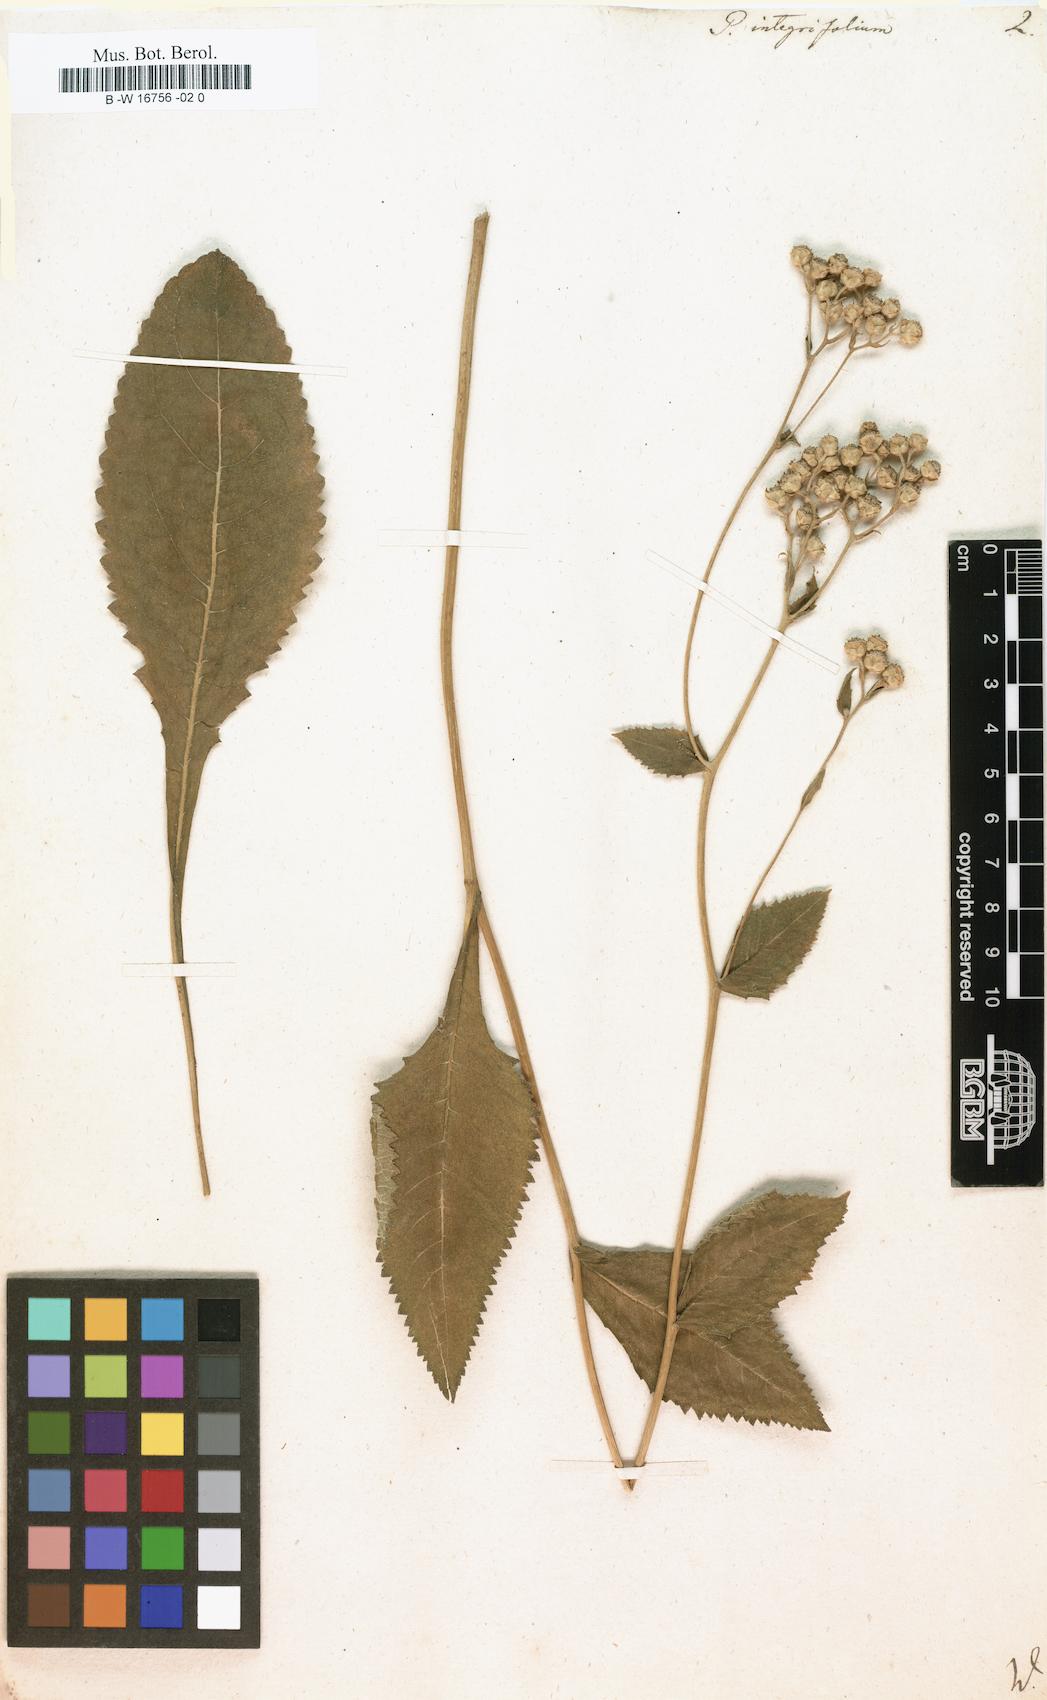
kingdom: Plantae
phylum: Tracheophyta
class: Magnoliopsida
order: Asterales
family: Asteraceae
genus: Parthenium
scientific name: Parthenium integrifolium
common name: American feverfew
